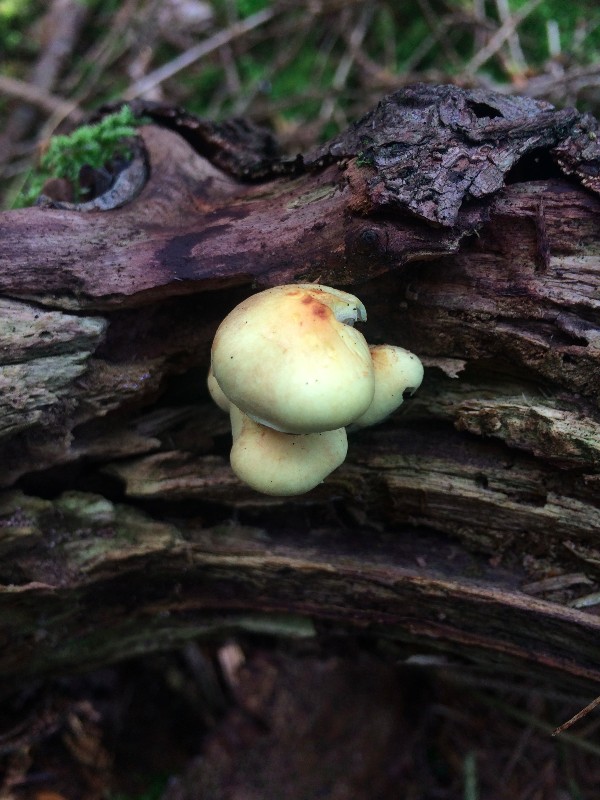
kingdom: Fungi
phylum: Basidiomycota
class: Agaricomycetes
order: Agaricales
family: Strophariaceae
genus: Kuehneromyces
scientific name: Kuehneromyces mutabilis
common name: foranderlig skælhat
